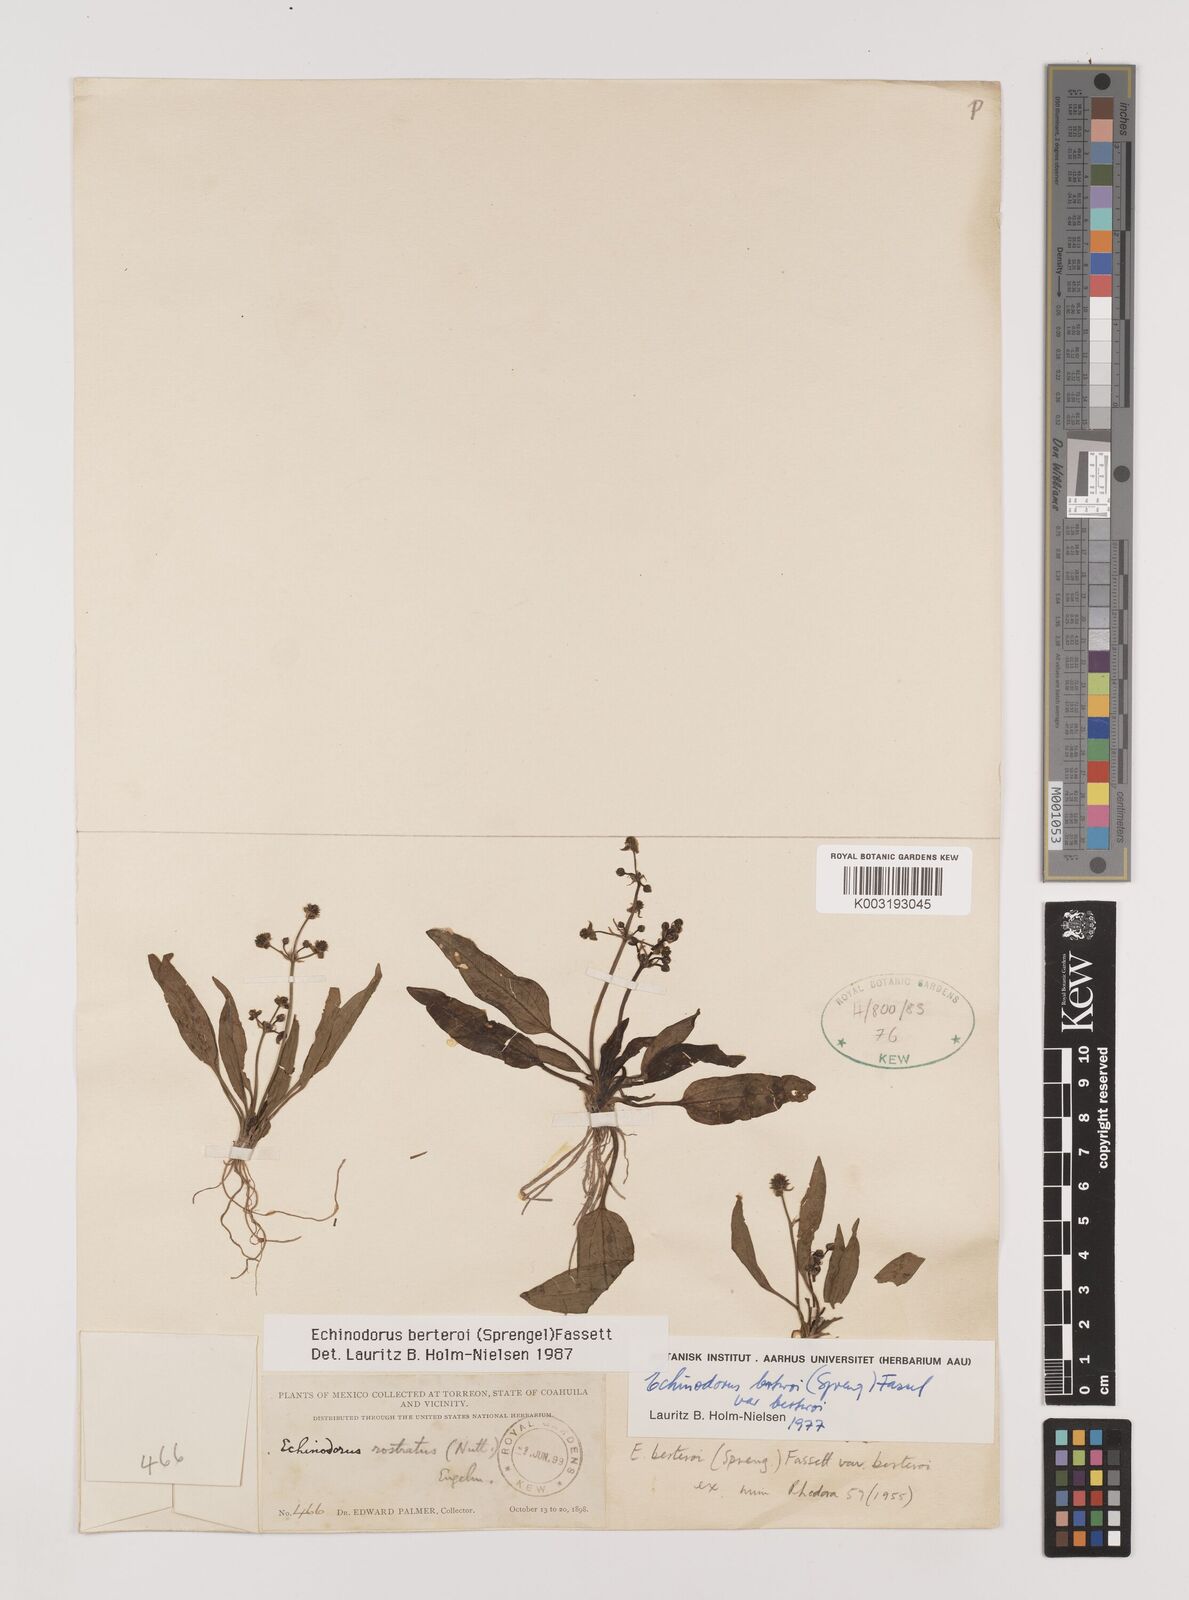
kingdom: Plantae
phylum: Tracheophyta
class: Liliopsida
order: Alismatales
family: Alismataceae
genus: Echinodorus
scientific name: Echinodorus berteroi
